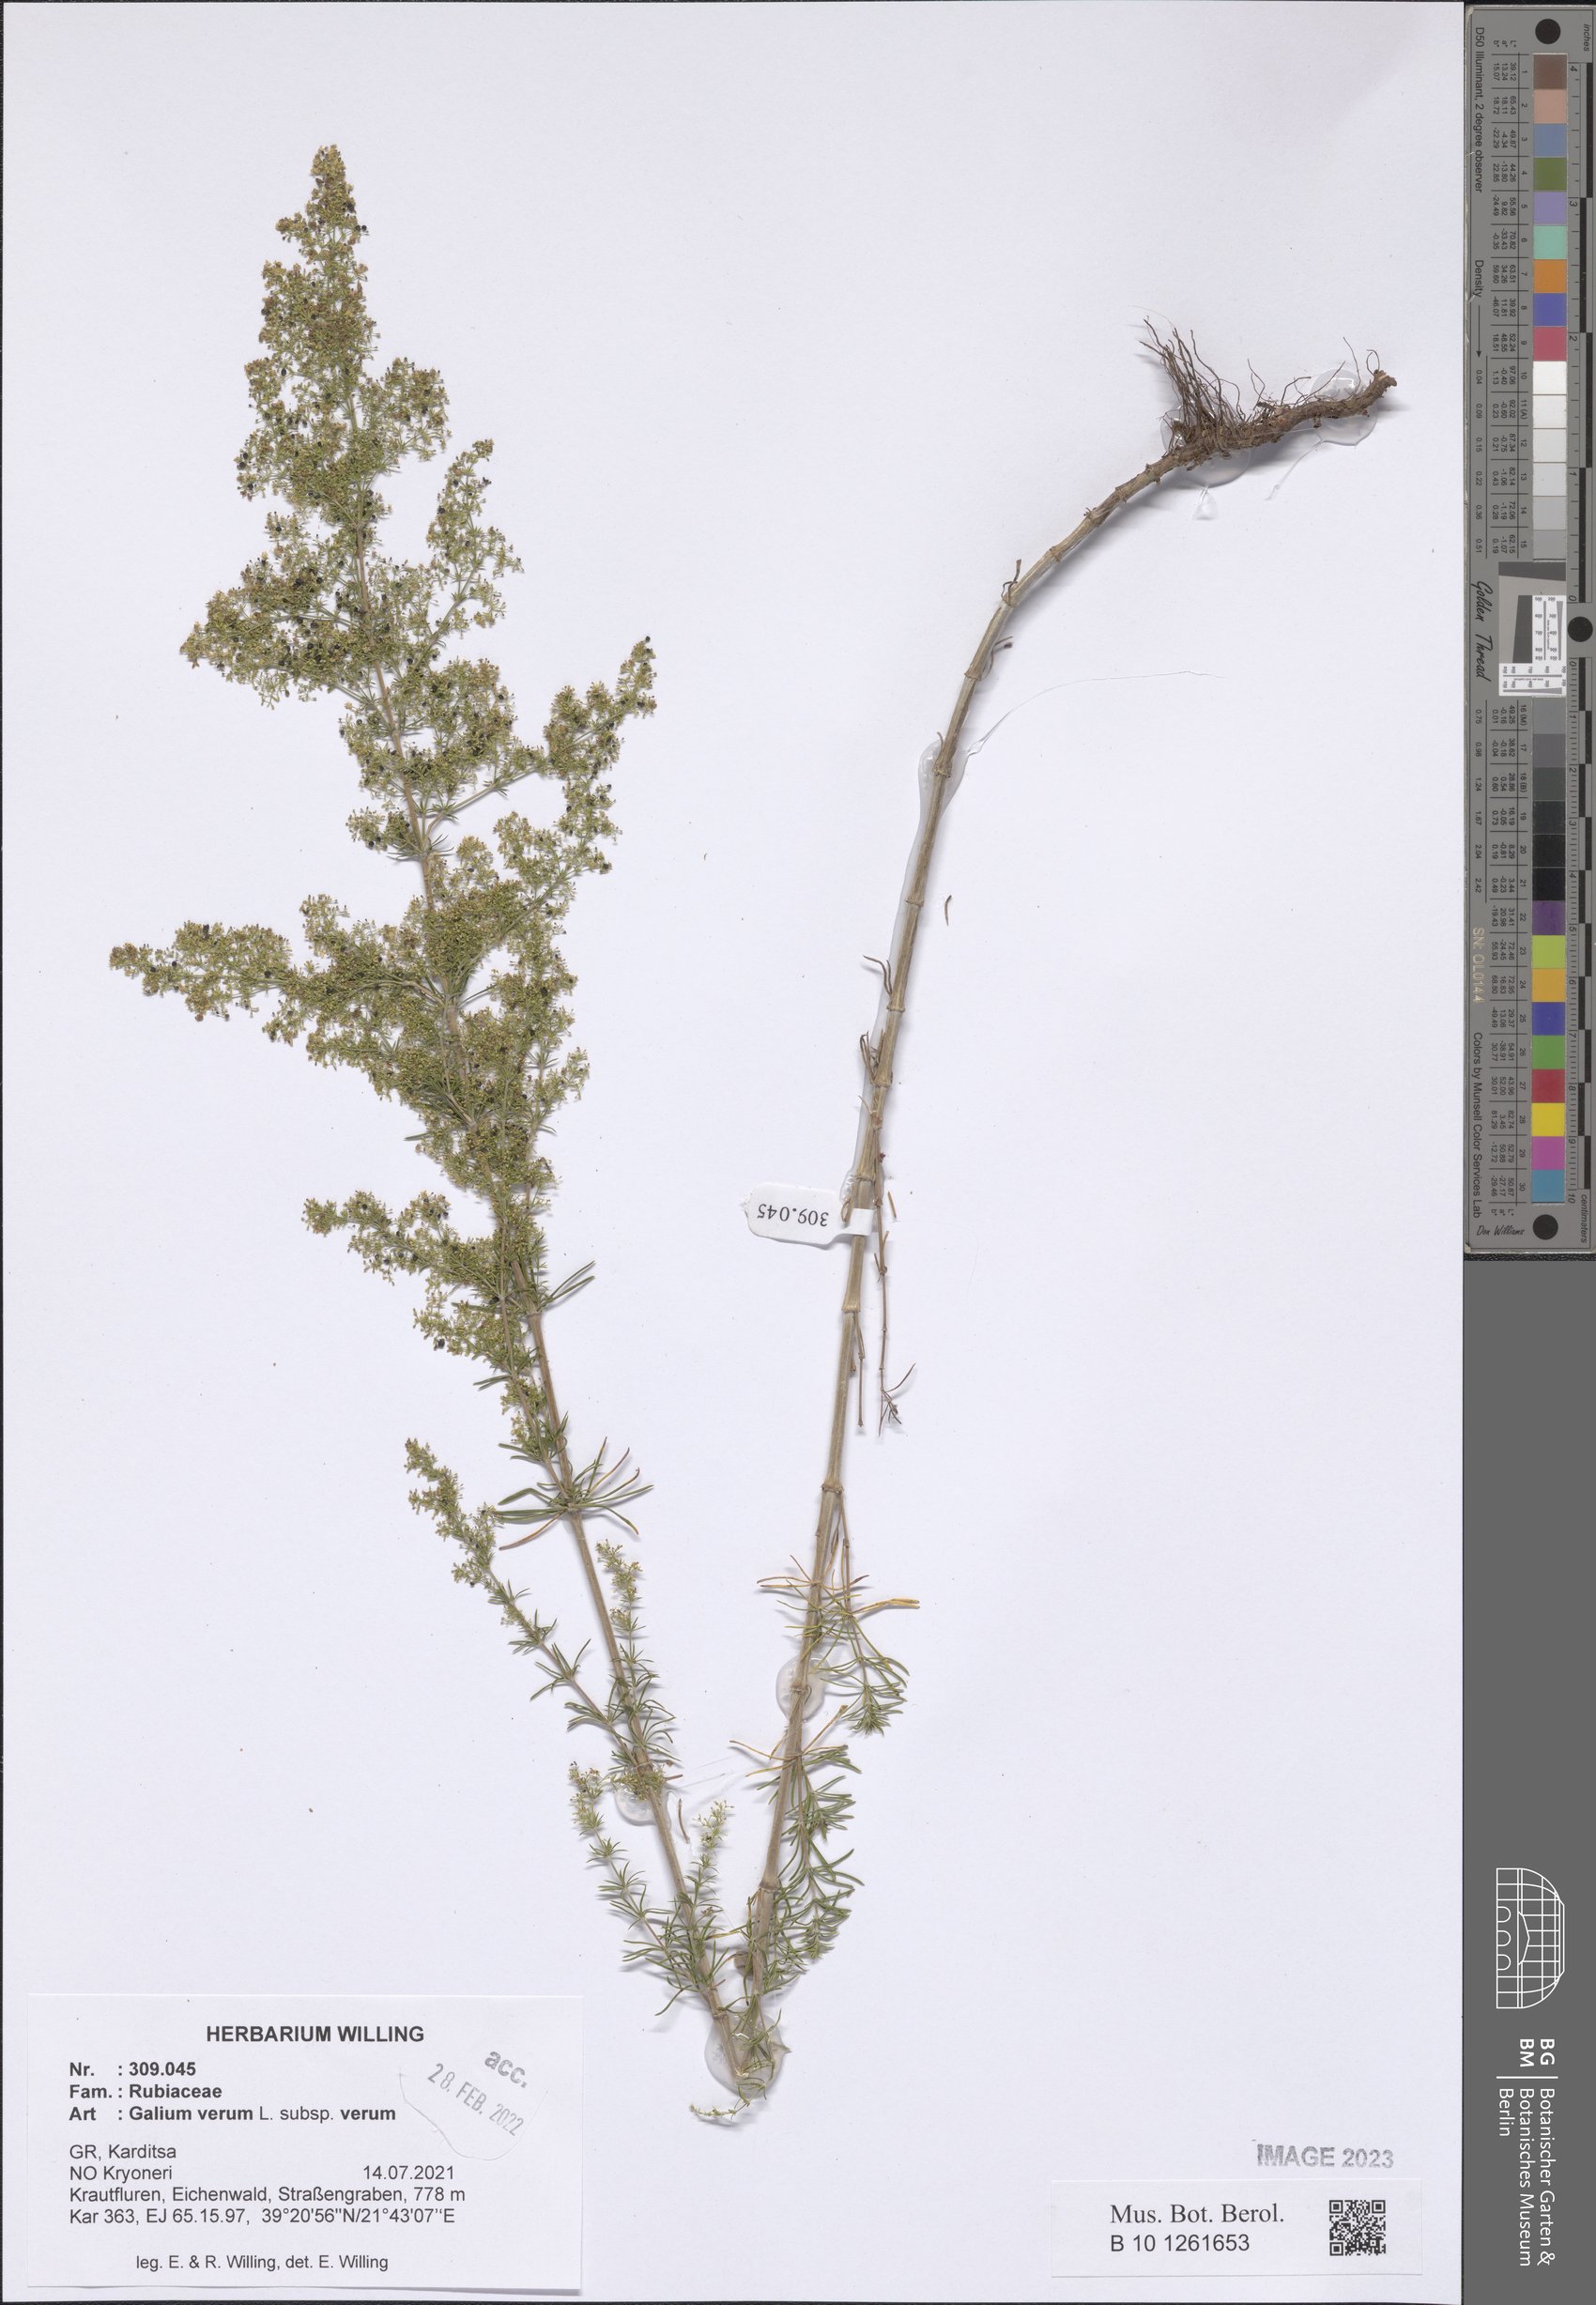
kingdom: Plantae
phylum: Tracheophyta
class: Magnoliopsida
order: Gentianales
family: Rubiaceae
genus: Galium
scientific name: Galium verum
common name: Lady's bedstraw
